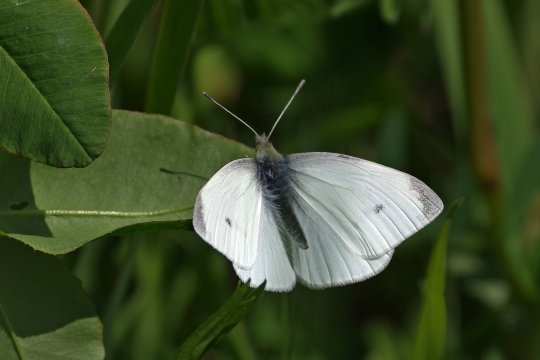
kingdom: Animalia
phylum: Arthropoda
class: Insecta
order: Lepidoptera
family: Pieridae
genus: Pieris
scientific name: Pieris rapae
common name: Cabbage White
